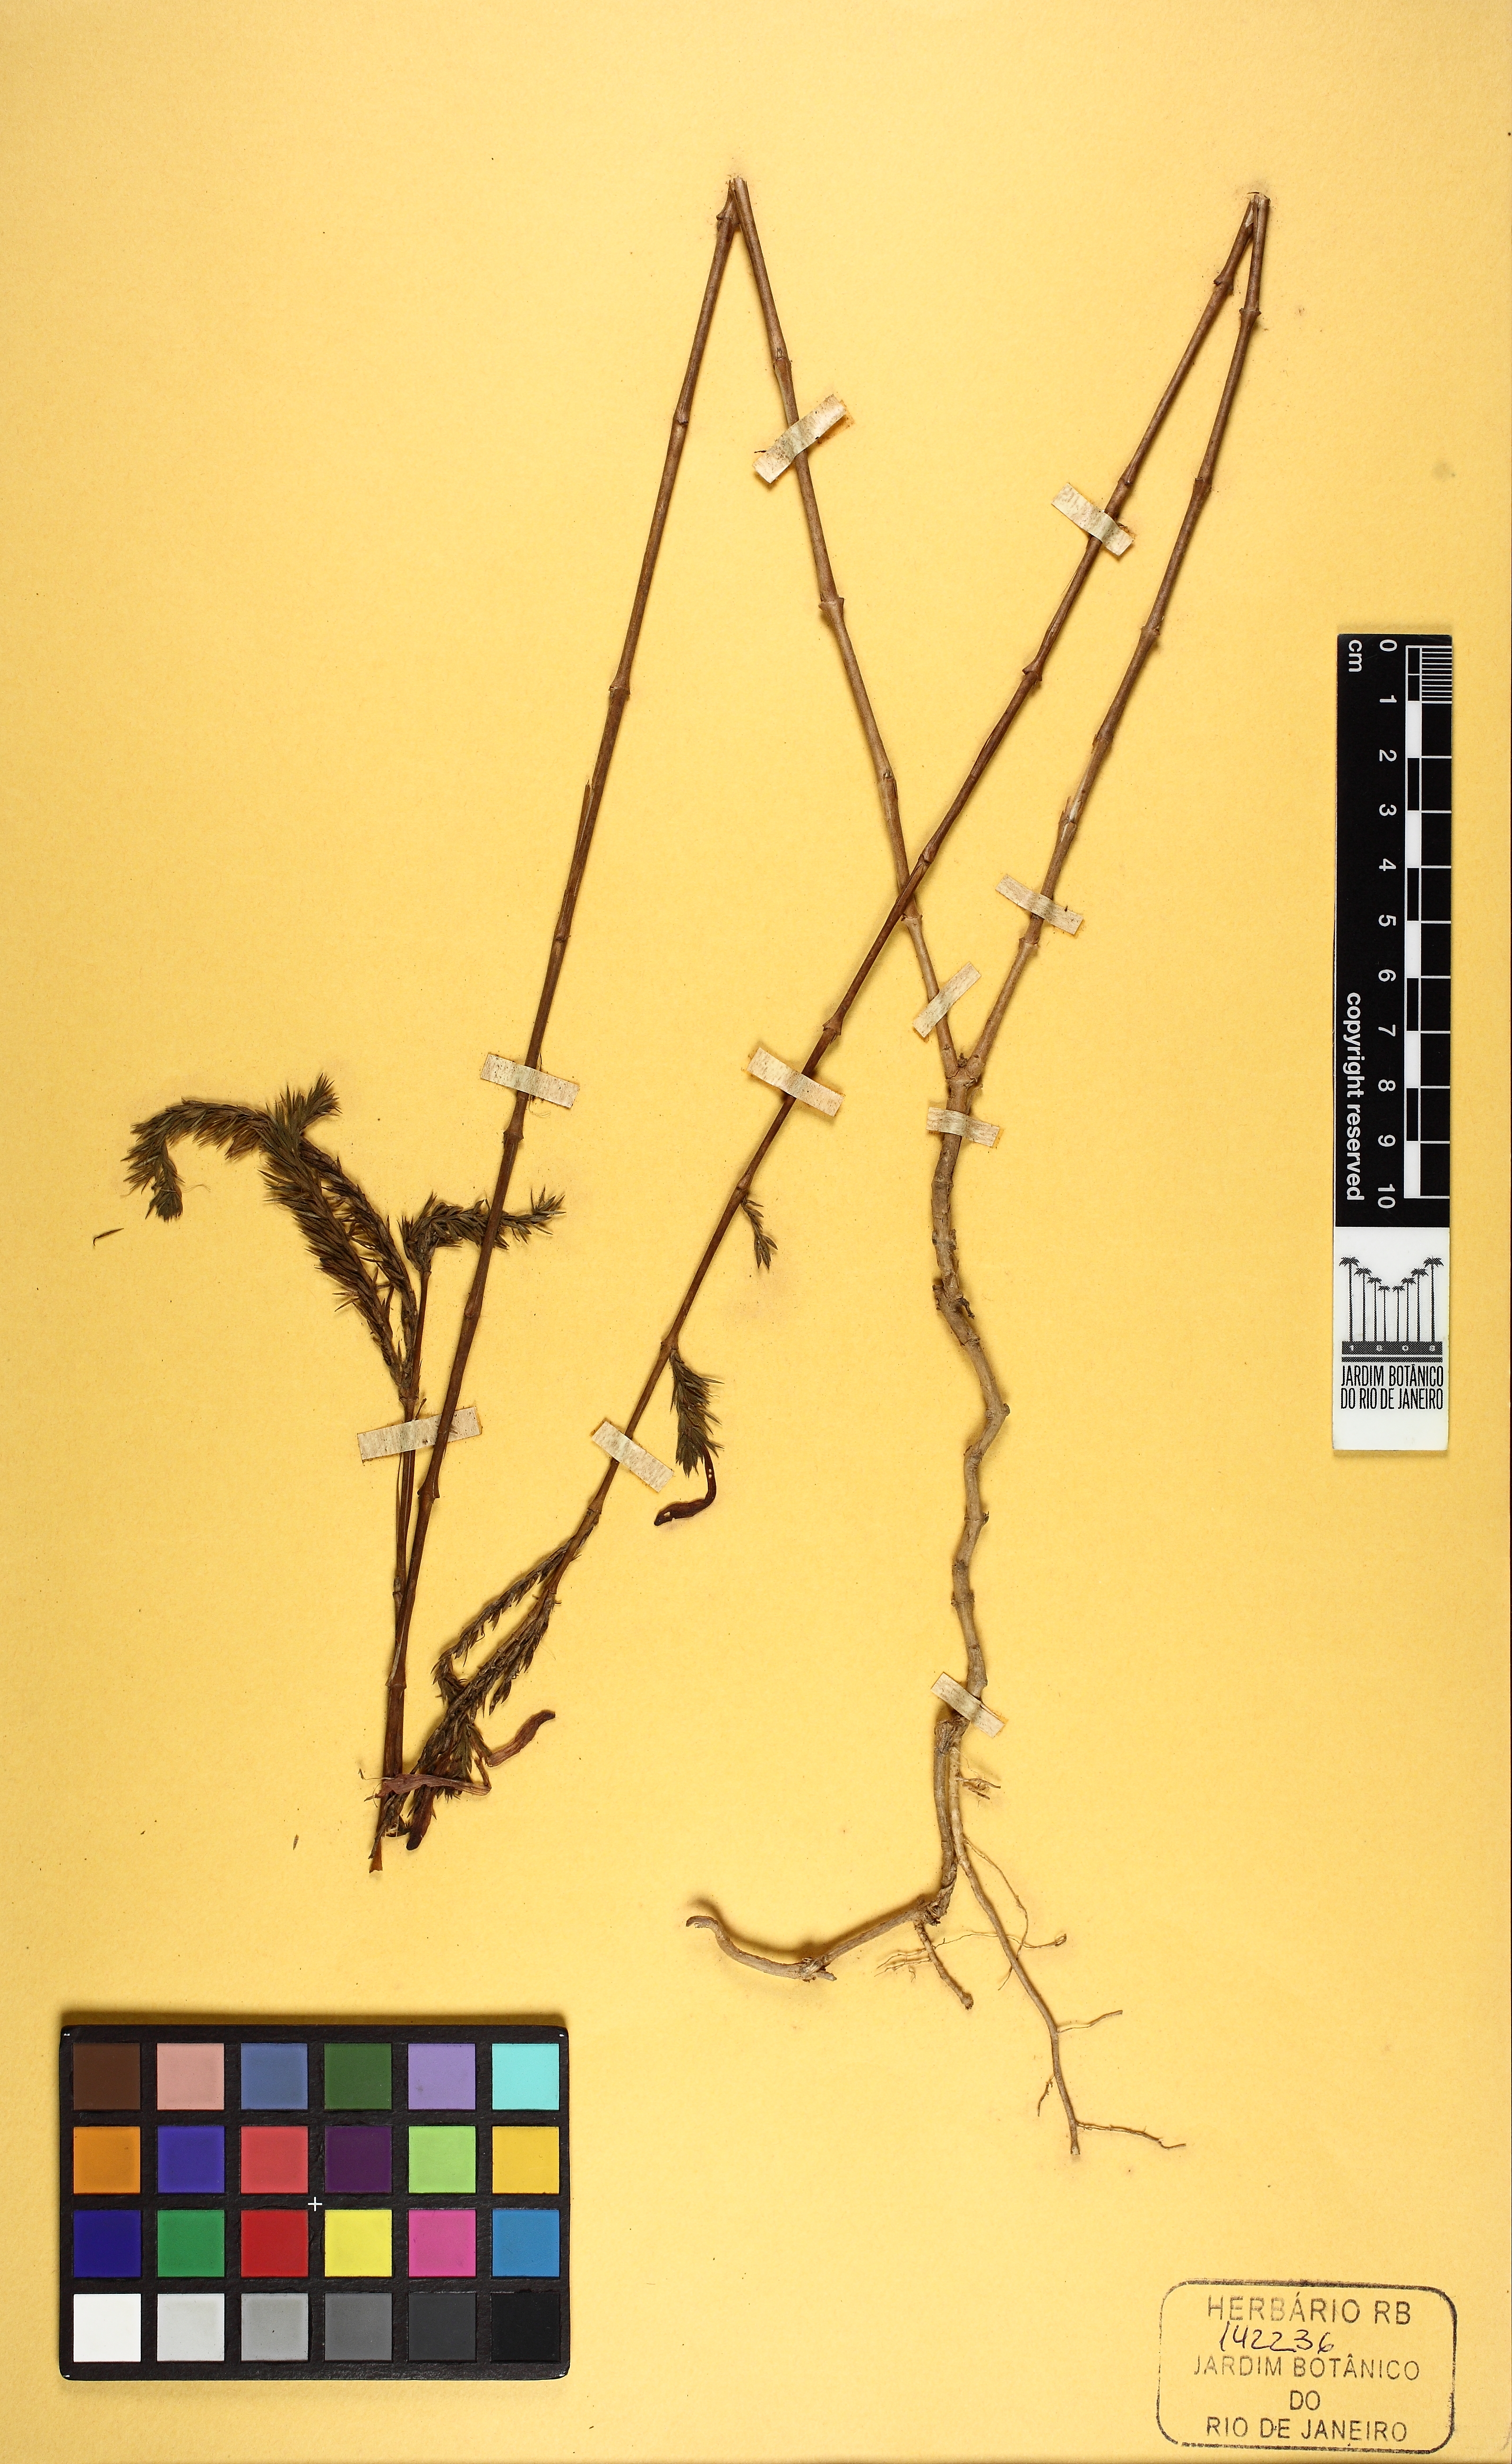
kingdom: Plantae
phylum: Tracheophyta
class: Magnoliopsida
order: Lamiales
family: Acanthaceae
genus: Dianthera
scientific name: Dianthera rigida
